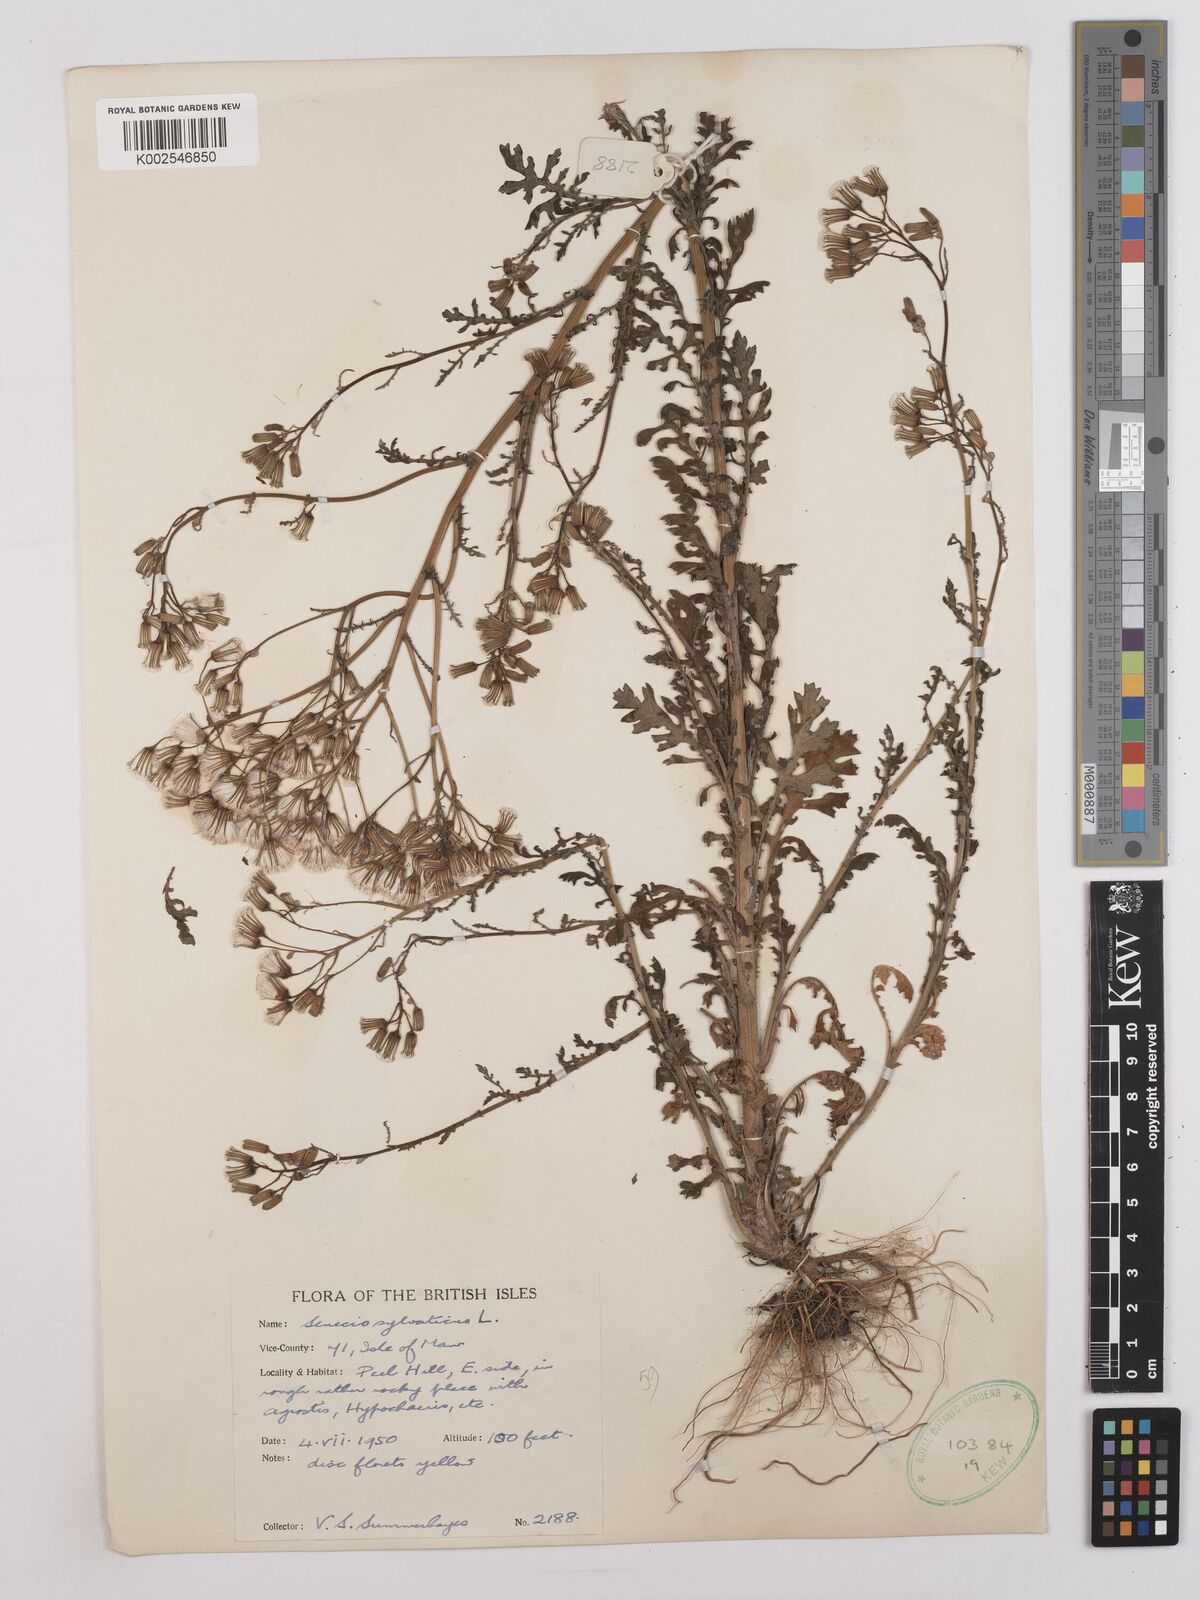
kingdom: Plantae
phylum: Tracheophyta
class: Magnoliopsida
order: Asterales
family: Asteraceae
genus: Senecio
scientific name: Senecio sylvaticus
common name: Woodland ragwort
